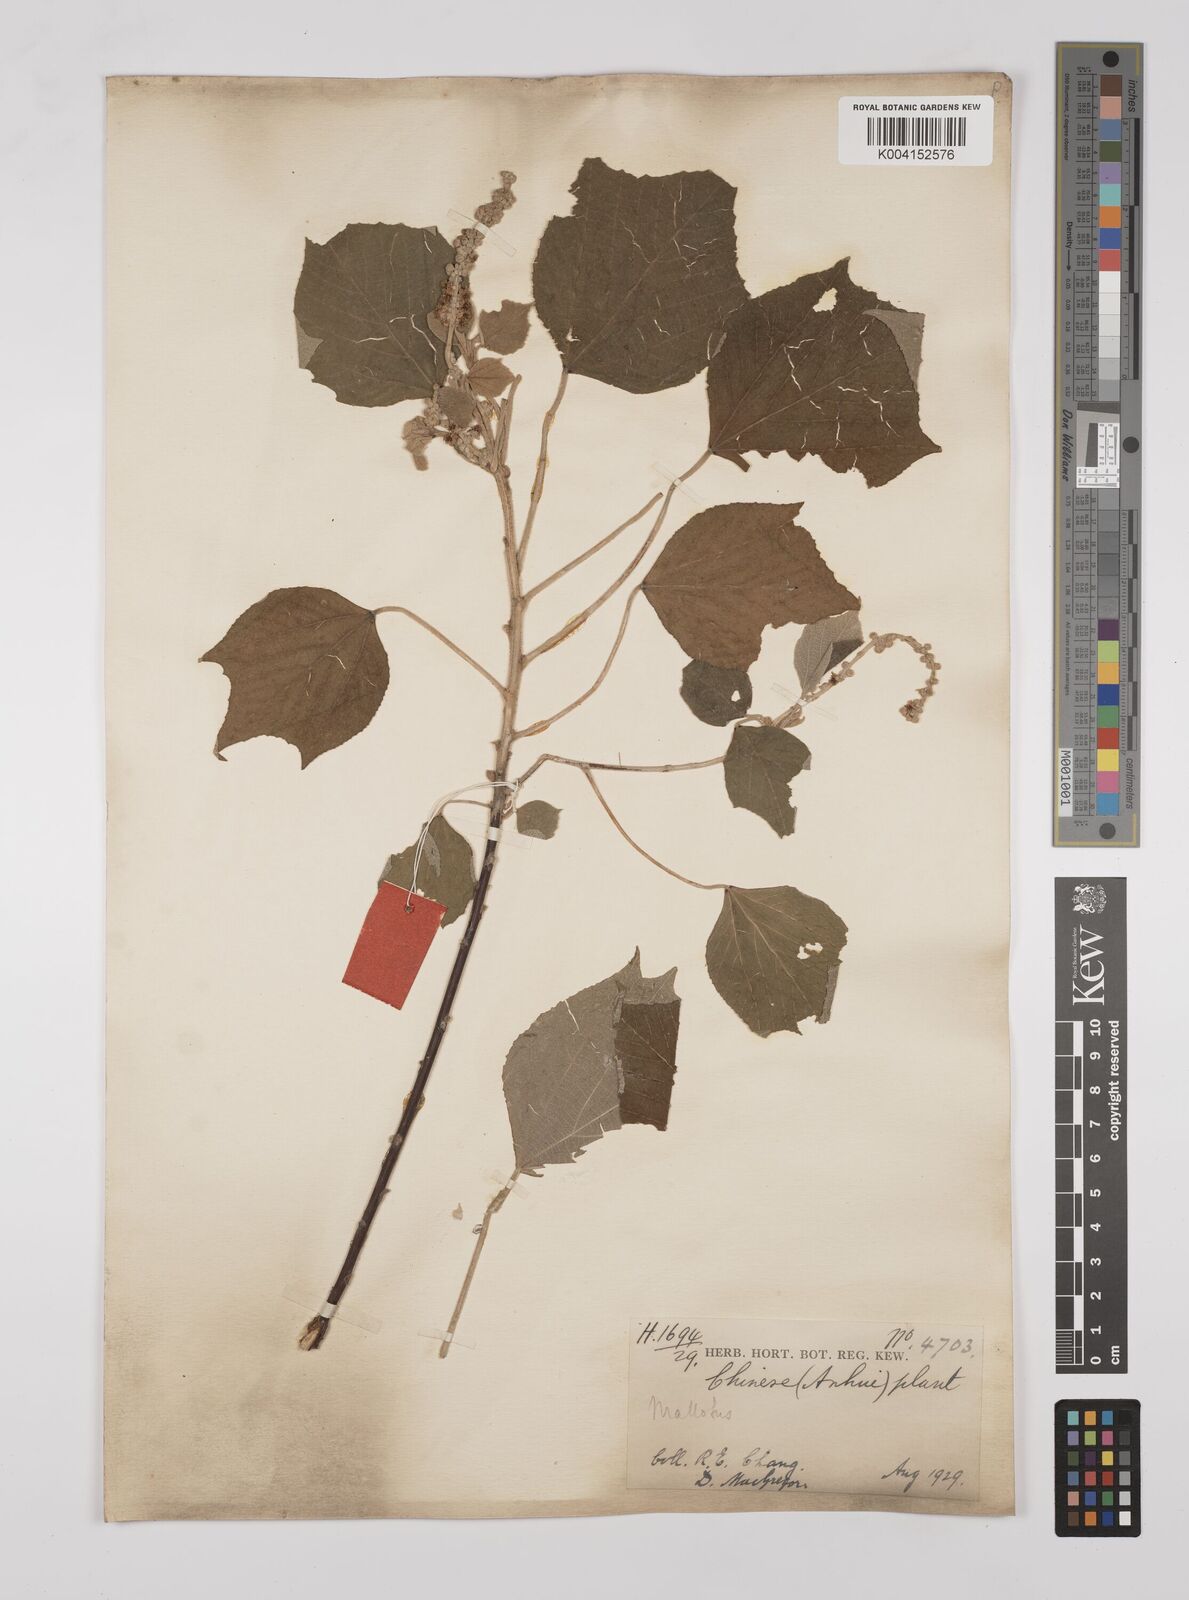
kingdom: Plantae
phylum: Tracheophyta
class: Magnoliopsida
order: Malpighiales
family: Euphorbiaceae
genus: Mallotus
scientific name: Mallotus japonicus
